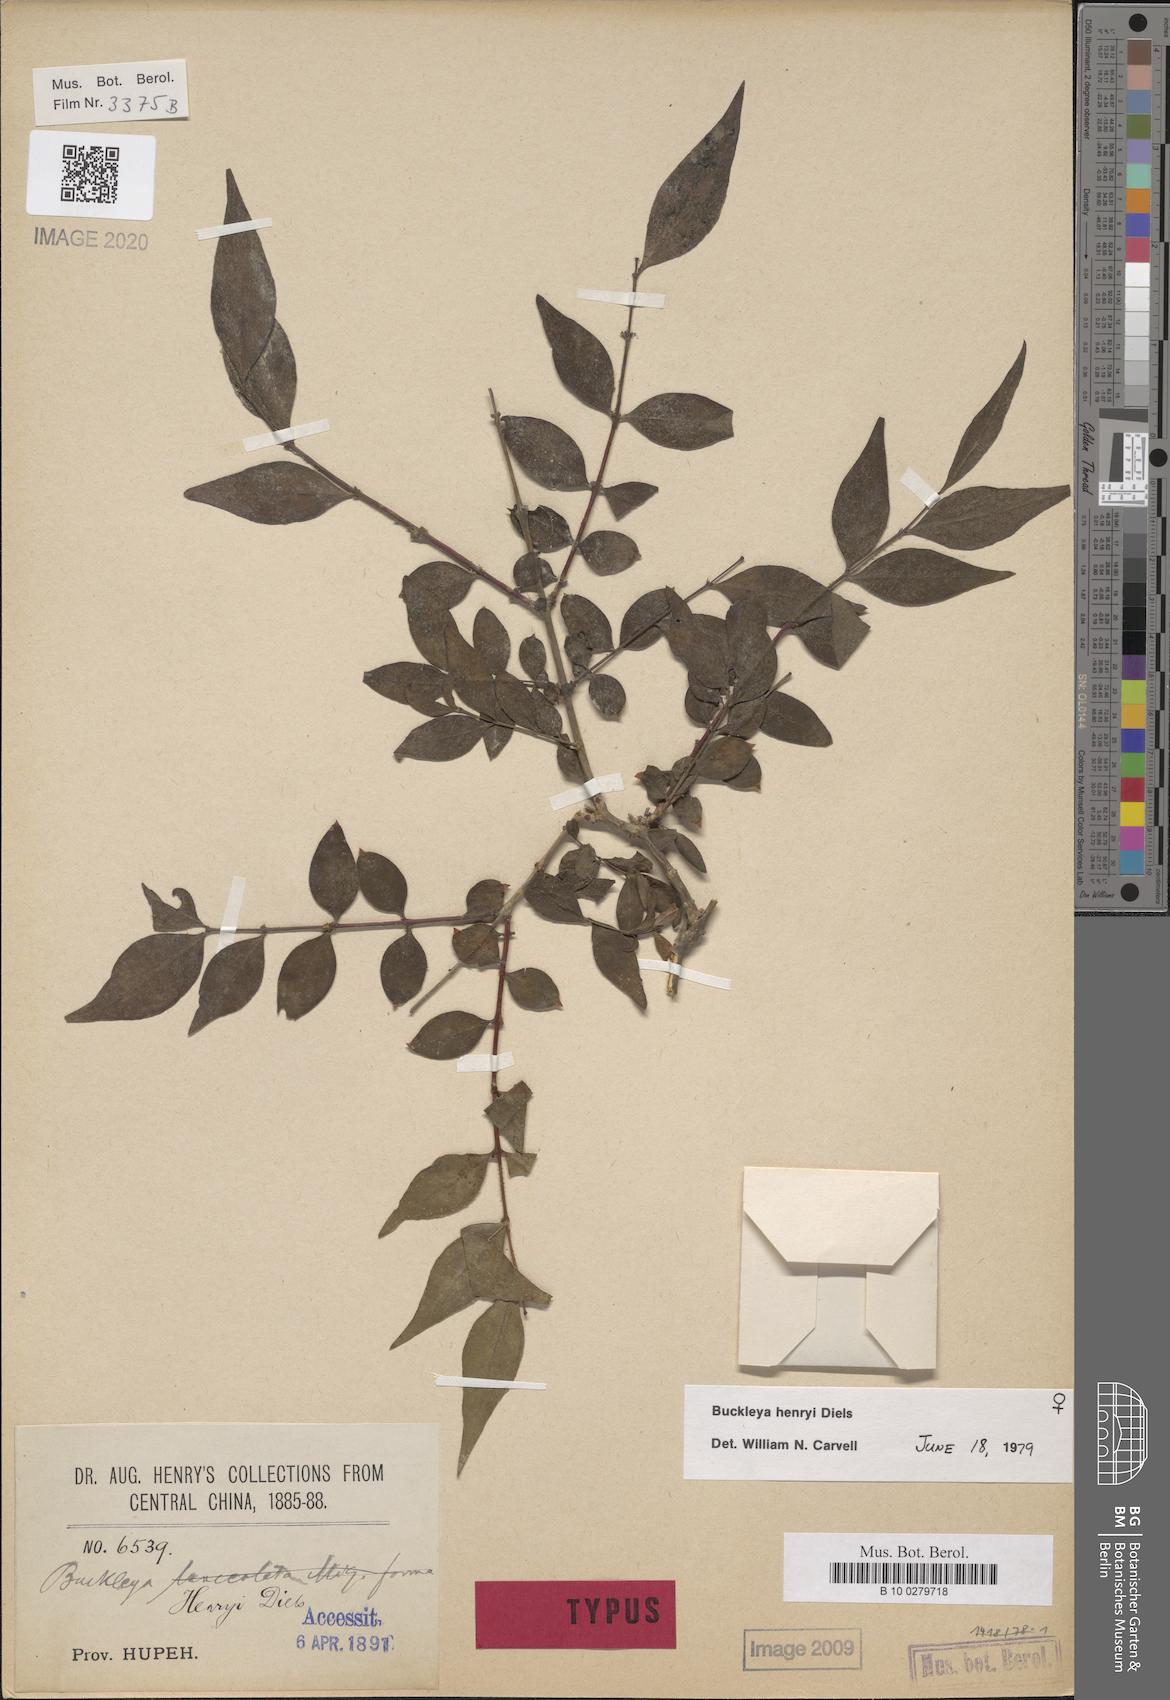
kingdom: Plantae
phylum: Tracheophyta
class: Magnoliopsida
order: Santalales
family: Thesiaceae
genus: Buckleya
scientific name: Buckleya lanceolata
